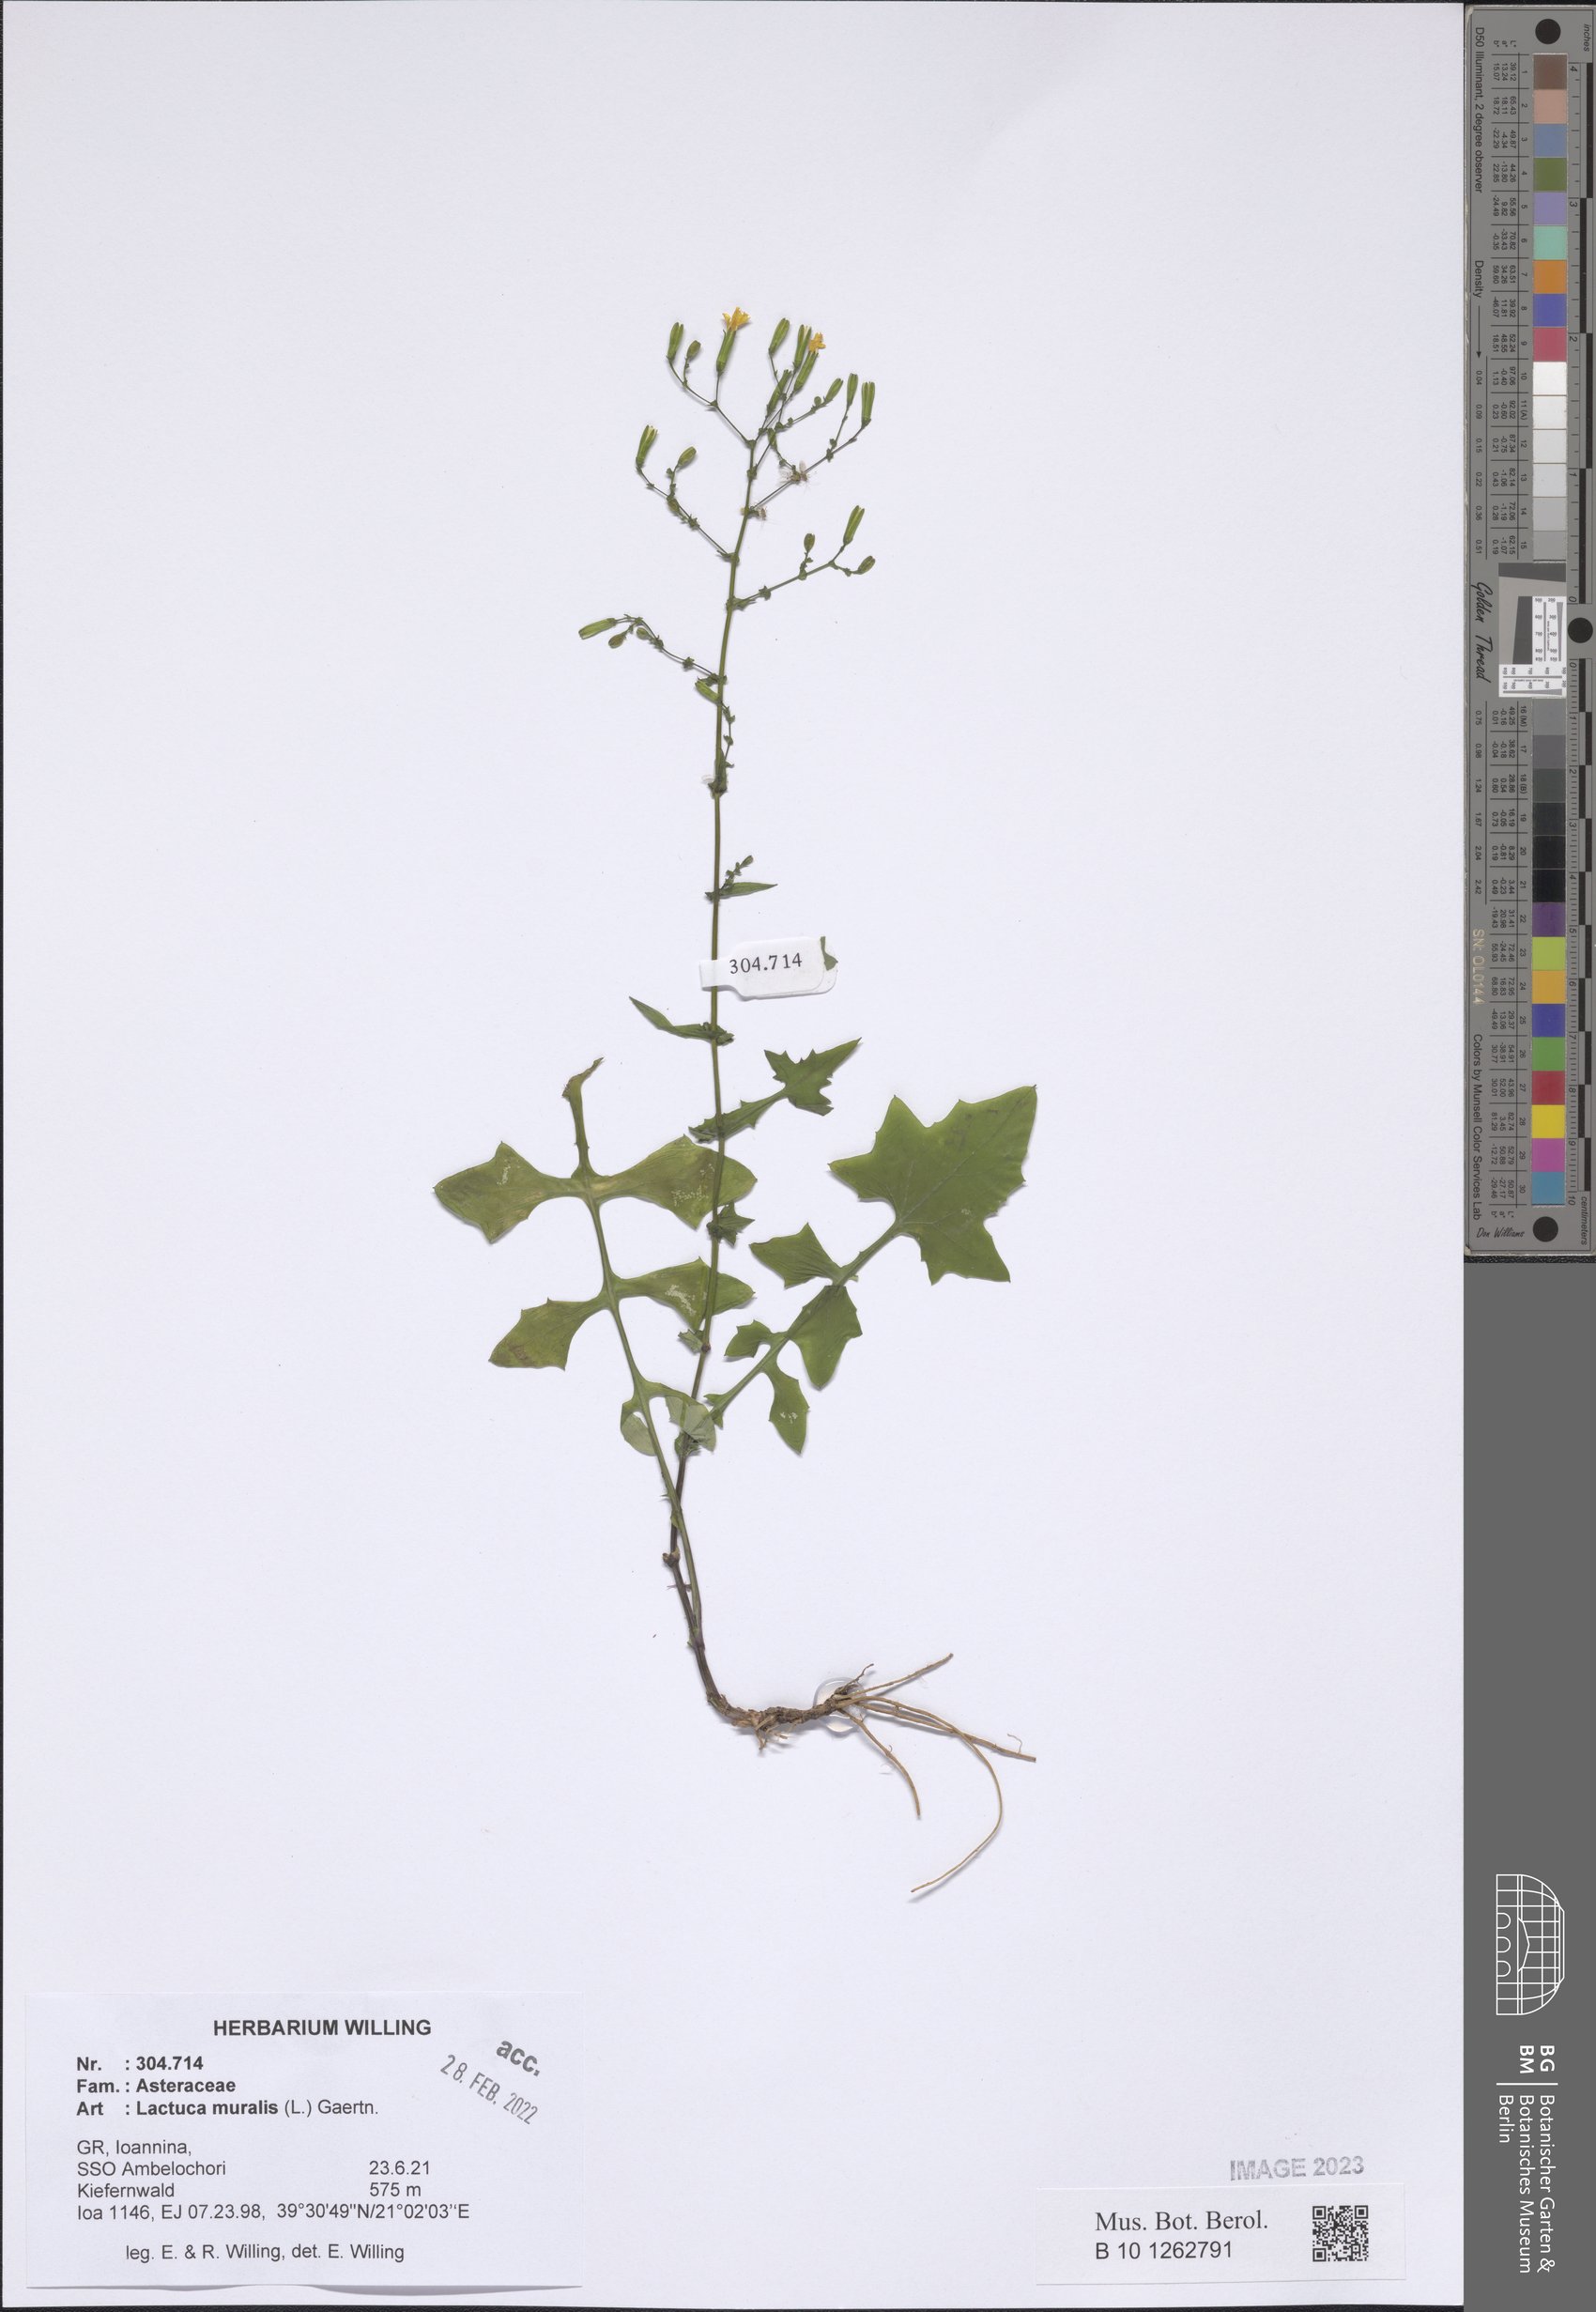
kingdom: Plantae
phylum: Tracheophyta
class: Magnoliopsida
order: Asterales
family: Asteraceae
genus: Mycelis
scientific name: Mycelis muralis
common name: Wall lettuce
